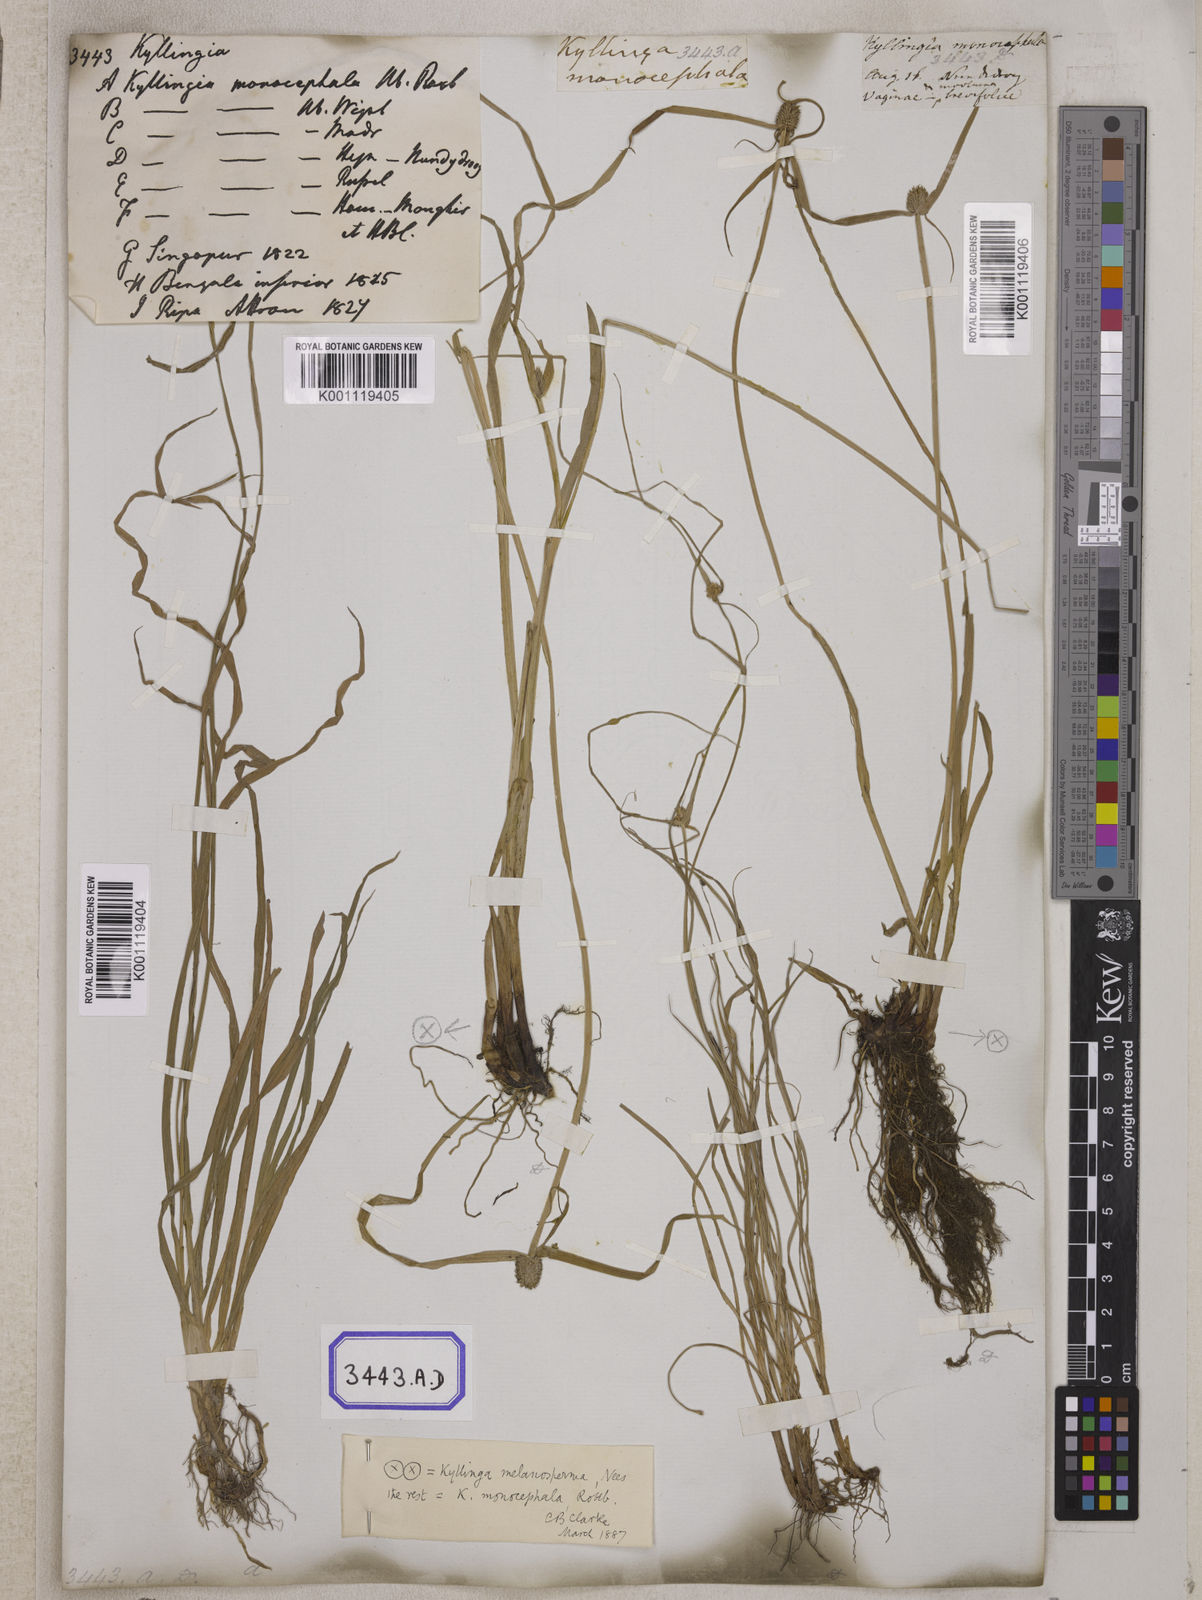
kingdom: Plantae
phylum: Tracheophyta
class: Liliopsida
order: Poales
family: Cyperaceae
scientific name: Cyperaceae
